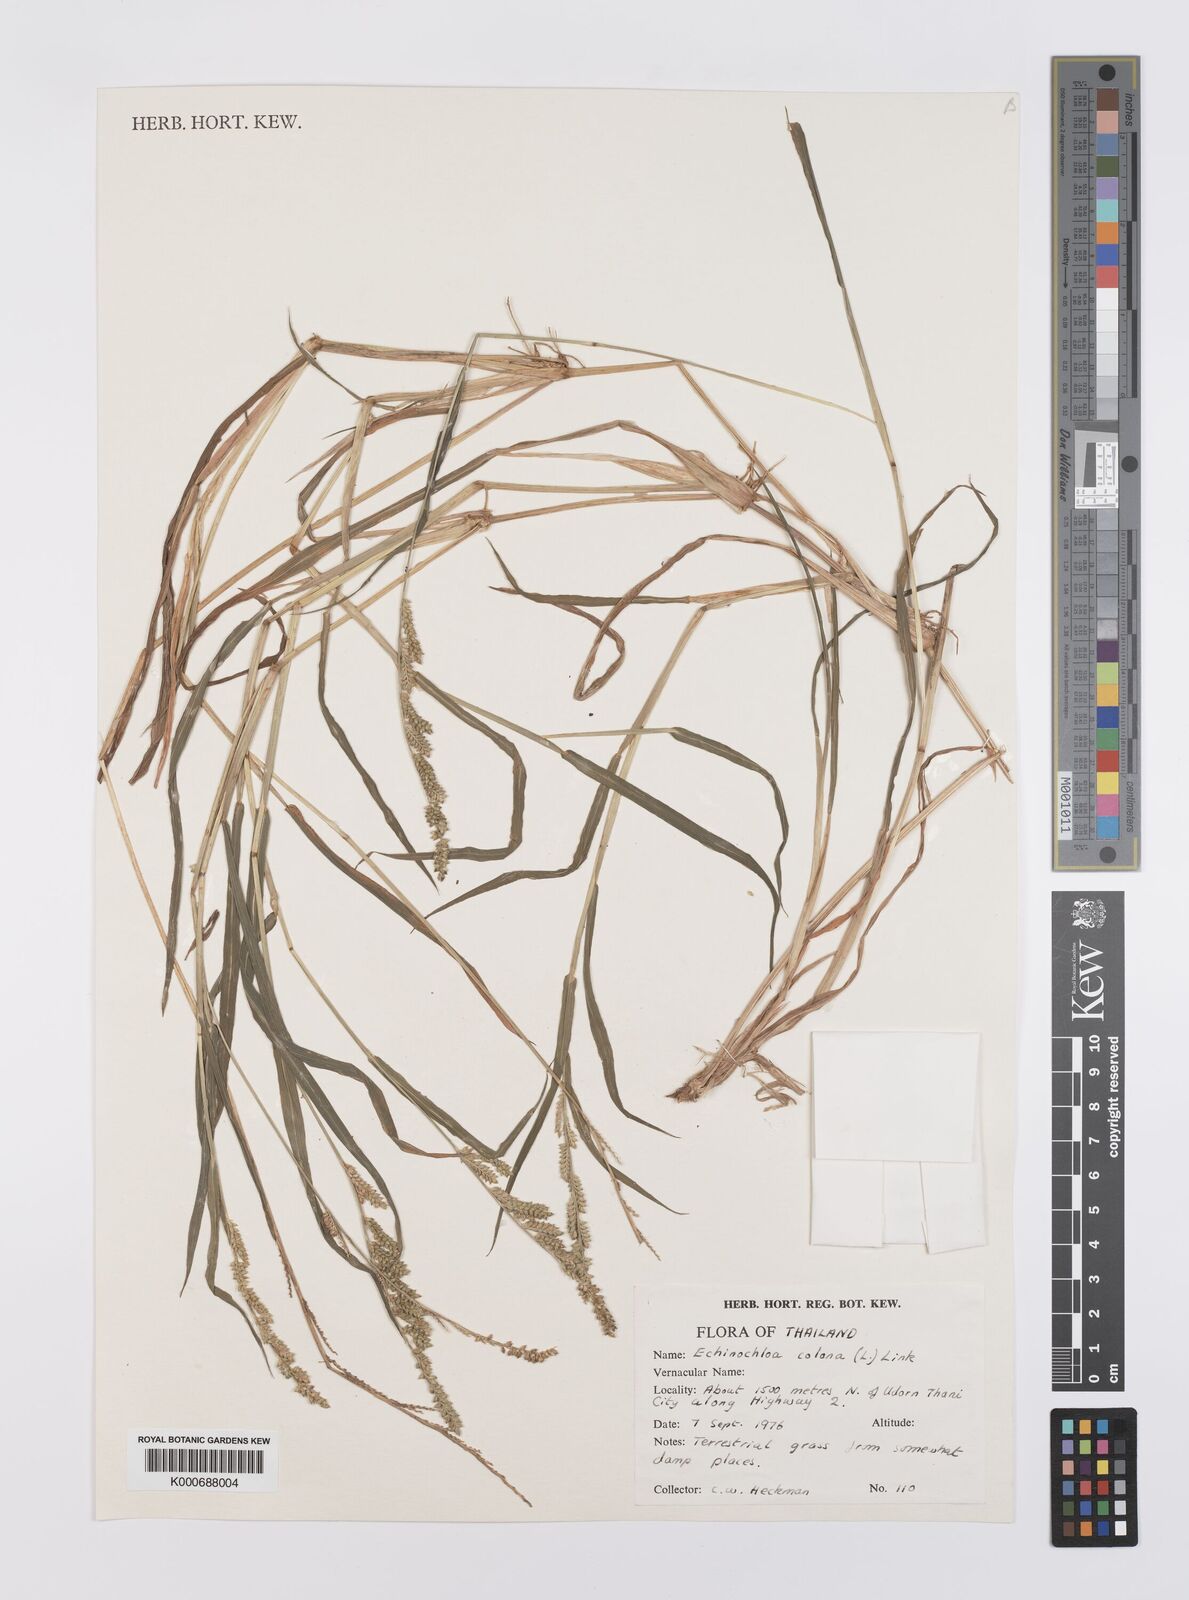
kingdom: Plantae
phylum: Tracheophyta
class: Liliopsida
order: Poales
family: Poaceae
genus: Echinochloa
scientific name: Echinochloa colonum
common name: Jungle rice
